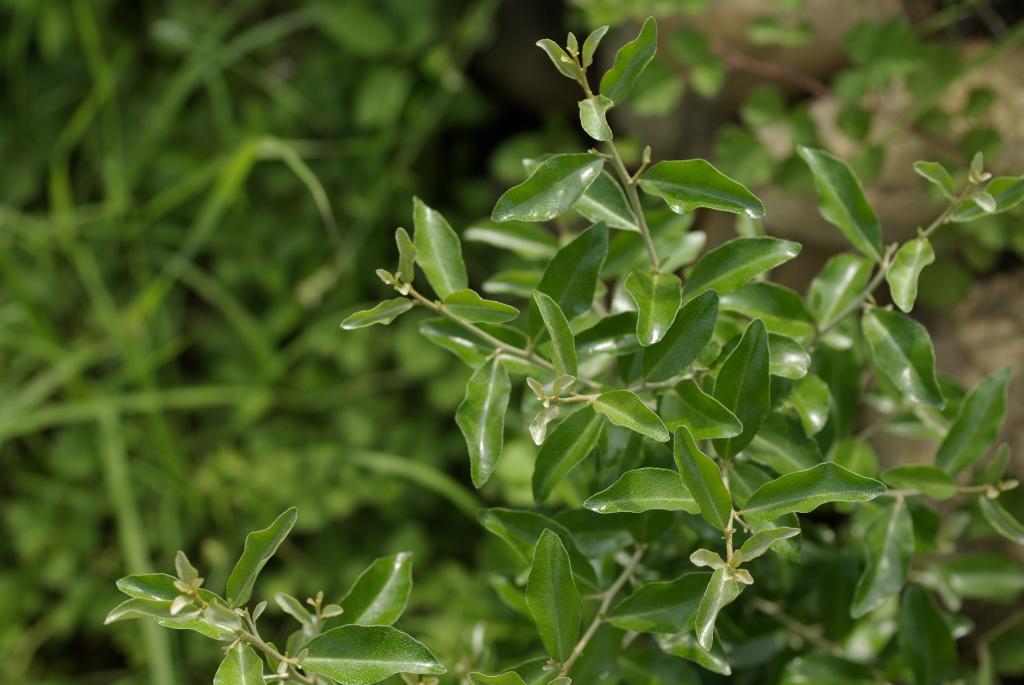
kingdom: Plantae
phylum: Tracheophyta
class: Magnoliopsida
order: Rosales
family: Elaeagnaceae
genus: Elaeagnus
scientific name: Elaeagnus oldhamii
